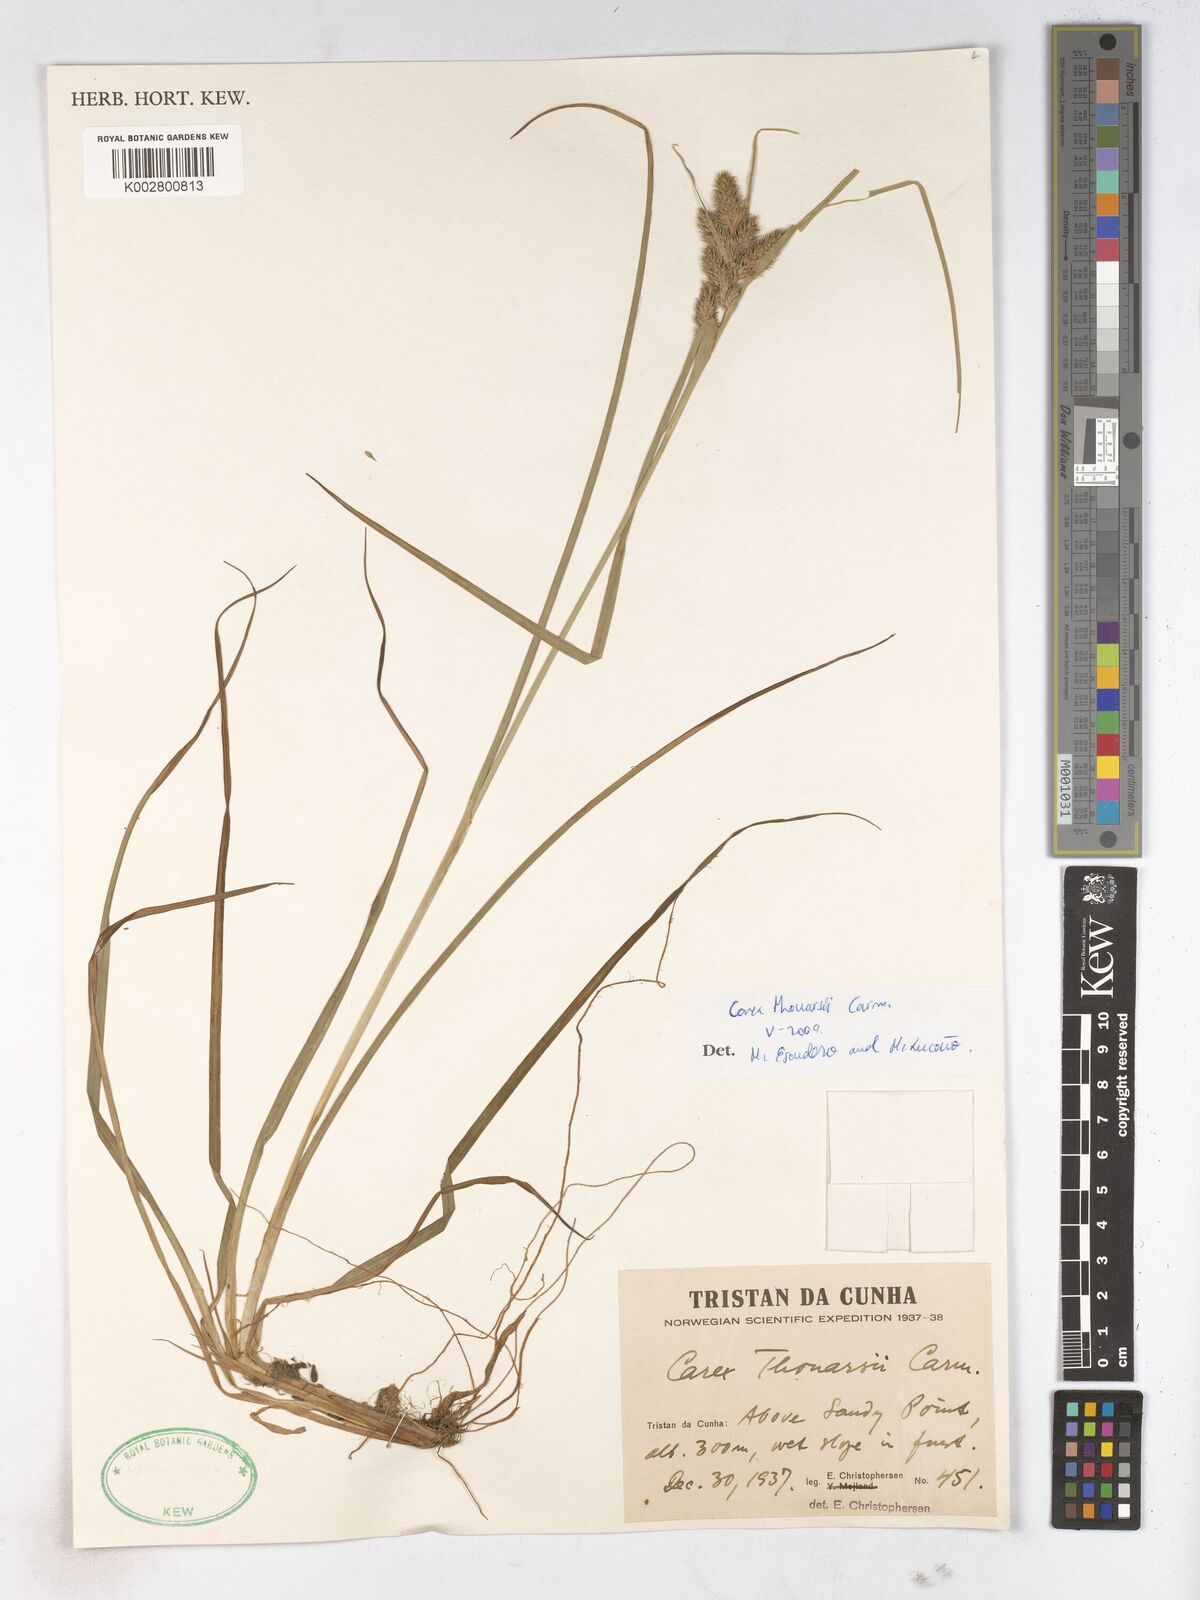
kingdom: Plantae
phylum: Tracheophyta
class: Liliopsida
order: Poales
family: Cyperaceae
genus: Carex
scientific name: Carex thouarsii
